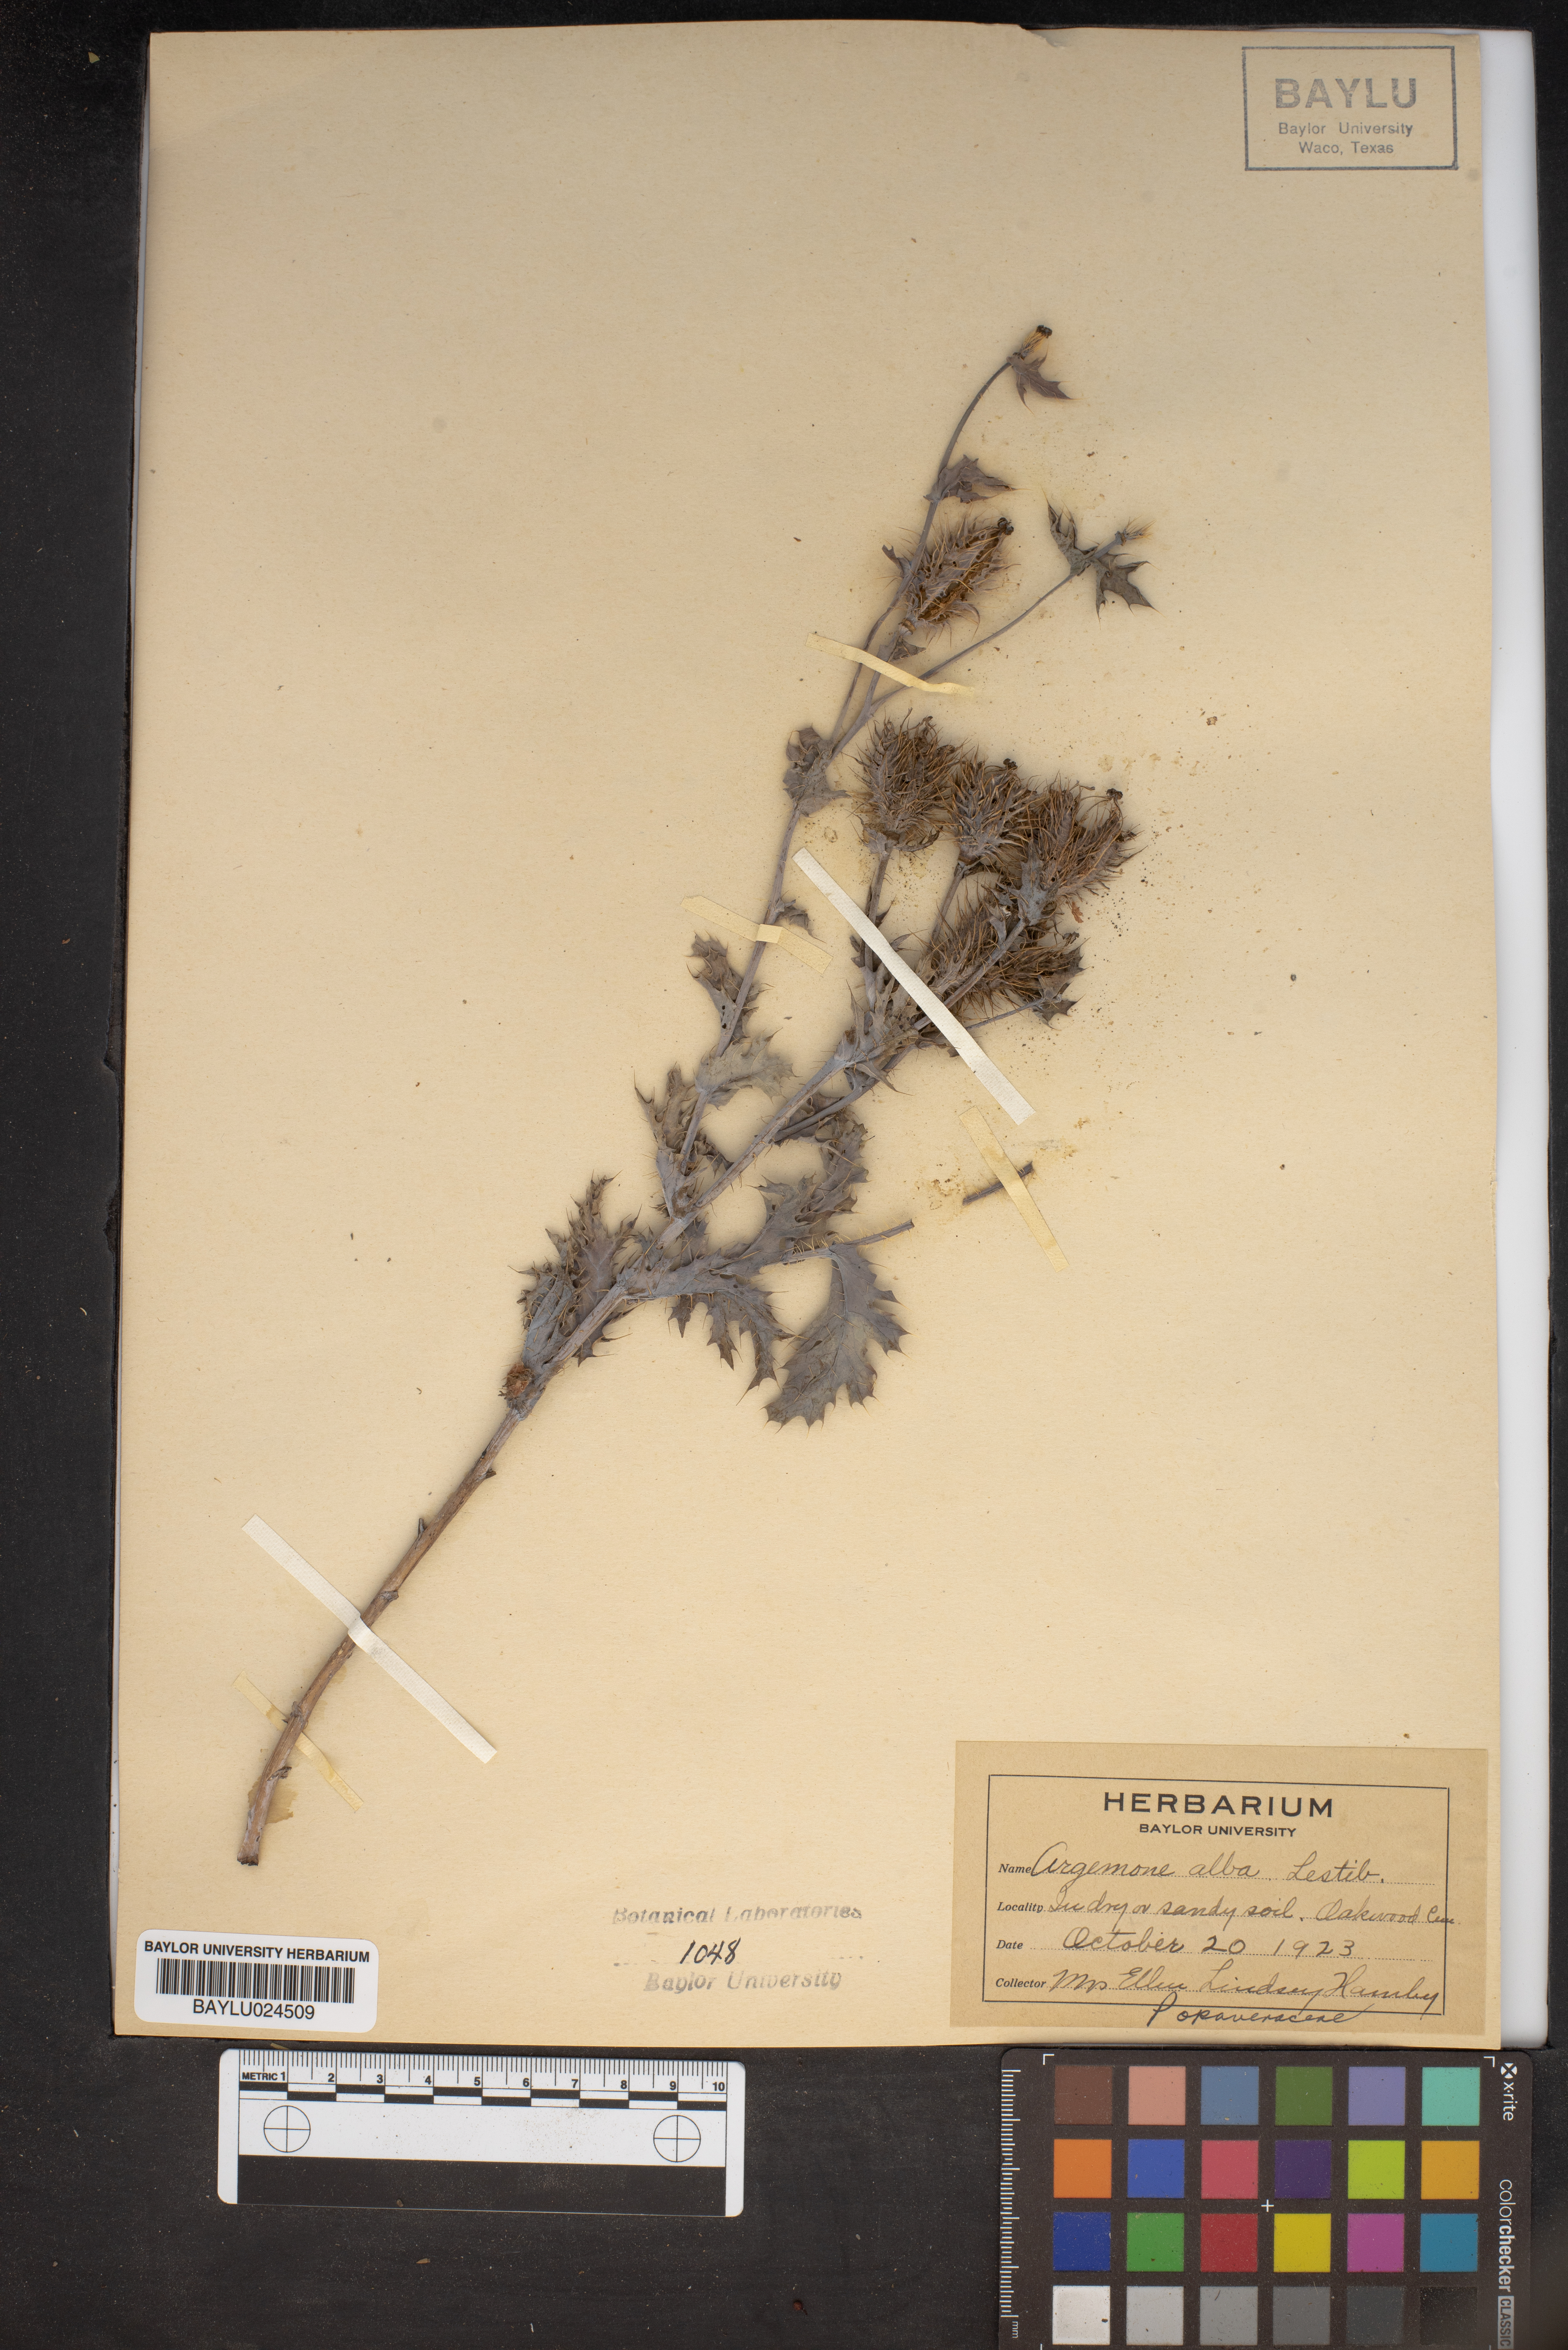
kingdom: Plantae
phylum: Tracheophyta
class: Magnoliopsida
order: Ranunculales
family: Papaveraceae
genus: Argemone
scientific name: Argemone albiflora
